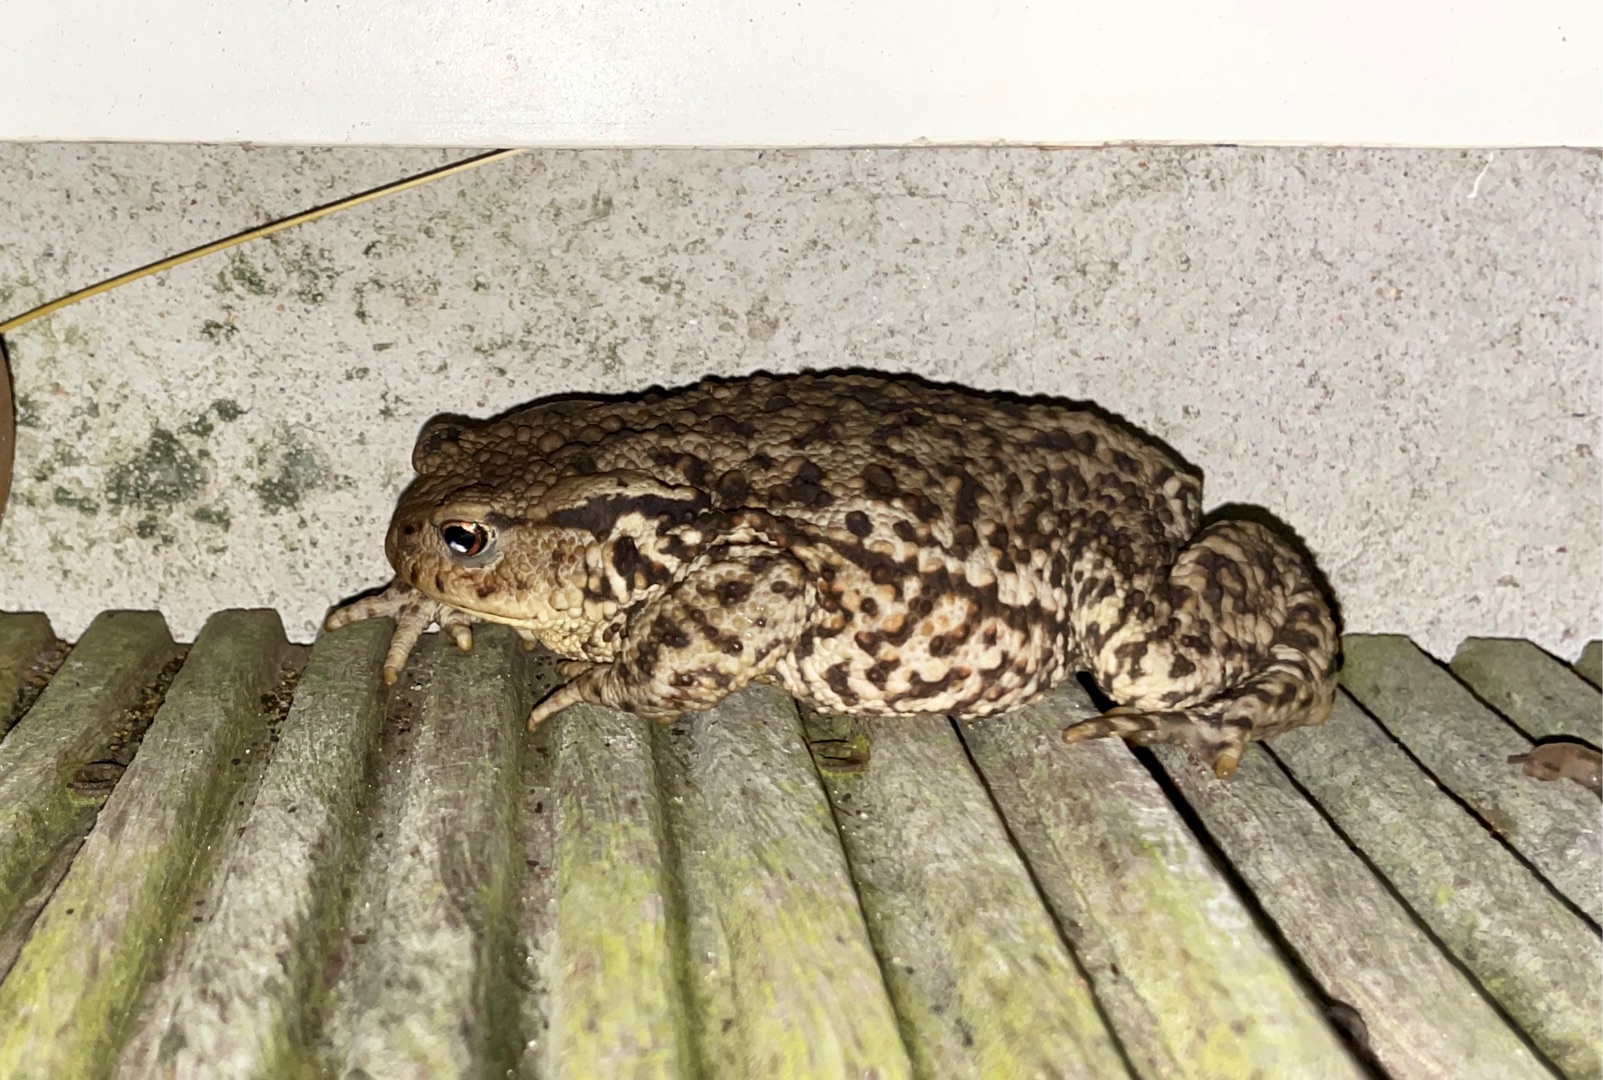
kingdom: Animalia
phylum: Chordata
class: Amphibia
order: Anura
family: Bufonidae
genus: Bufo
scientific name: Bufo bufo
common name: Skrubtudse
